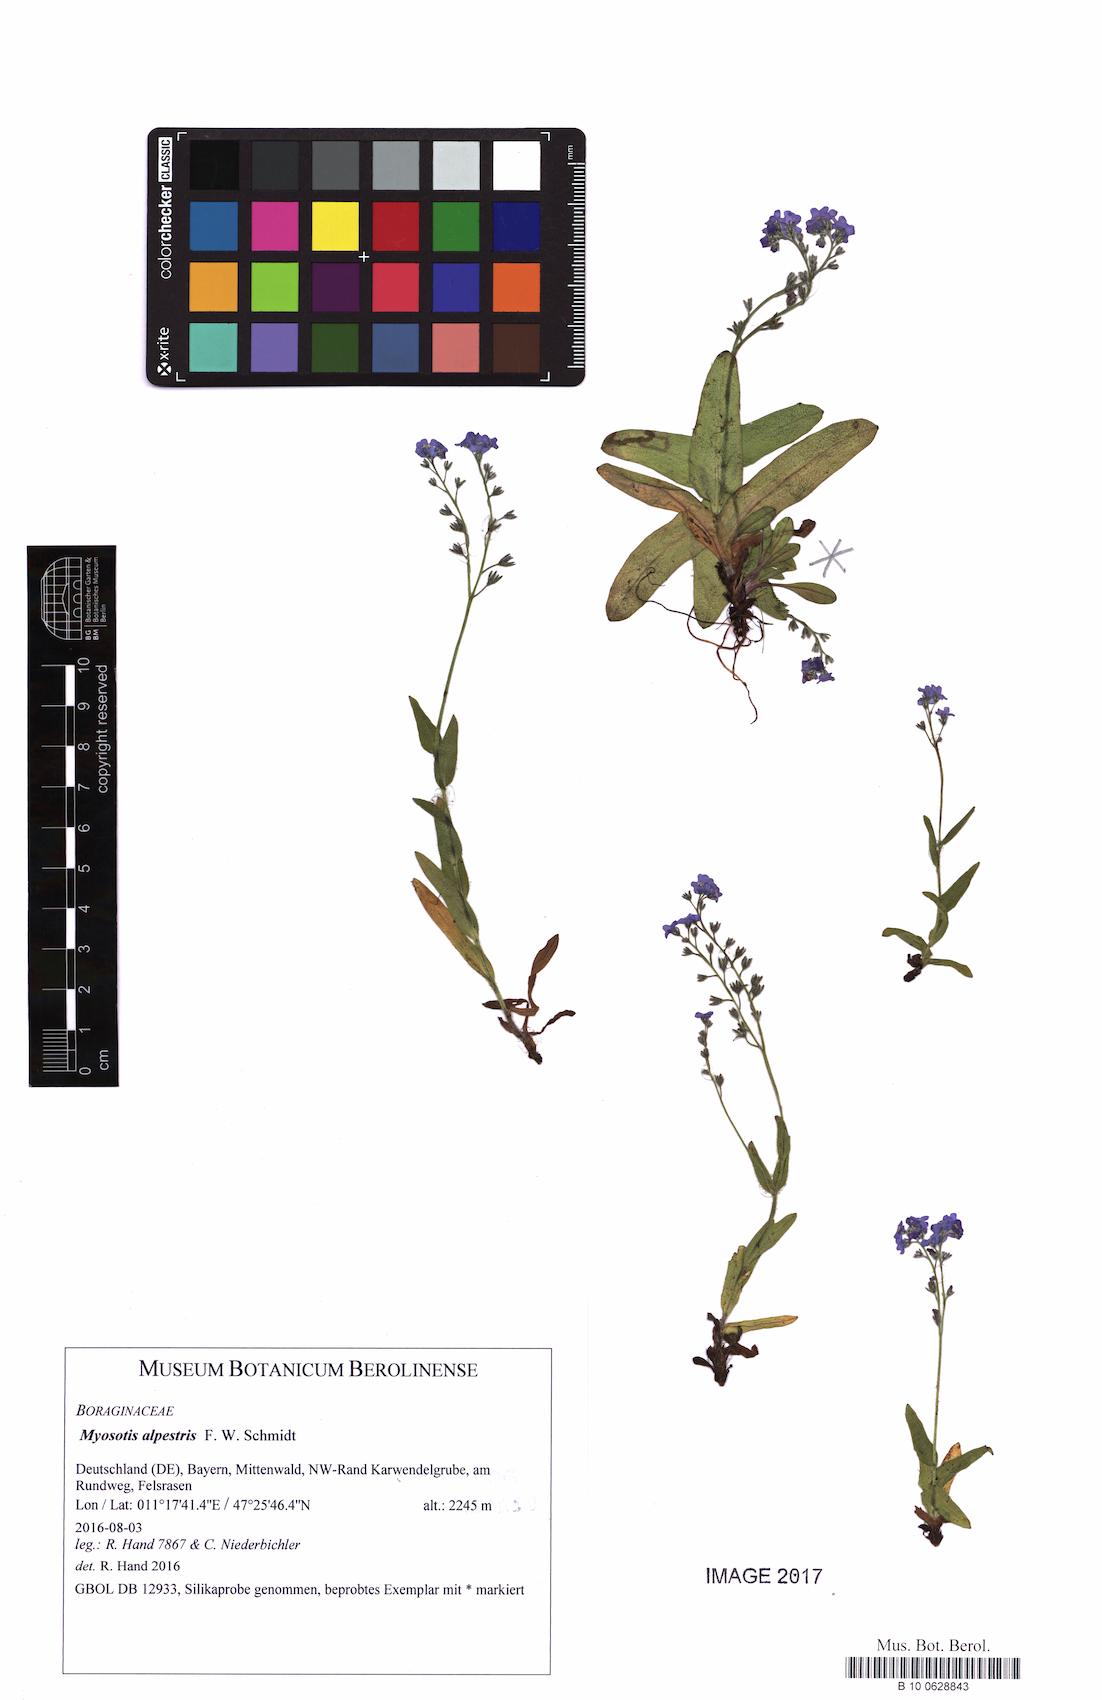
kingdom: Plantae
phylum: Tracheophyta
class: Magnoliopsida
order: Boraginales
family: Boraginaceae
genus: Myosotis
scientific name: Myosotis alpestris
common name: Alpine forget-me-not
